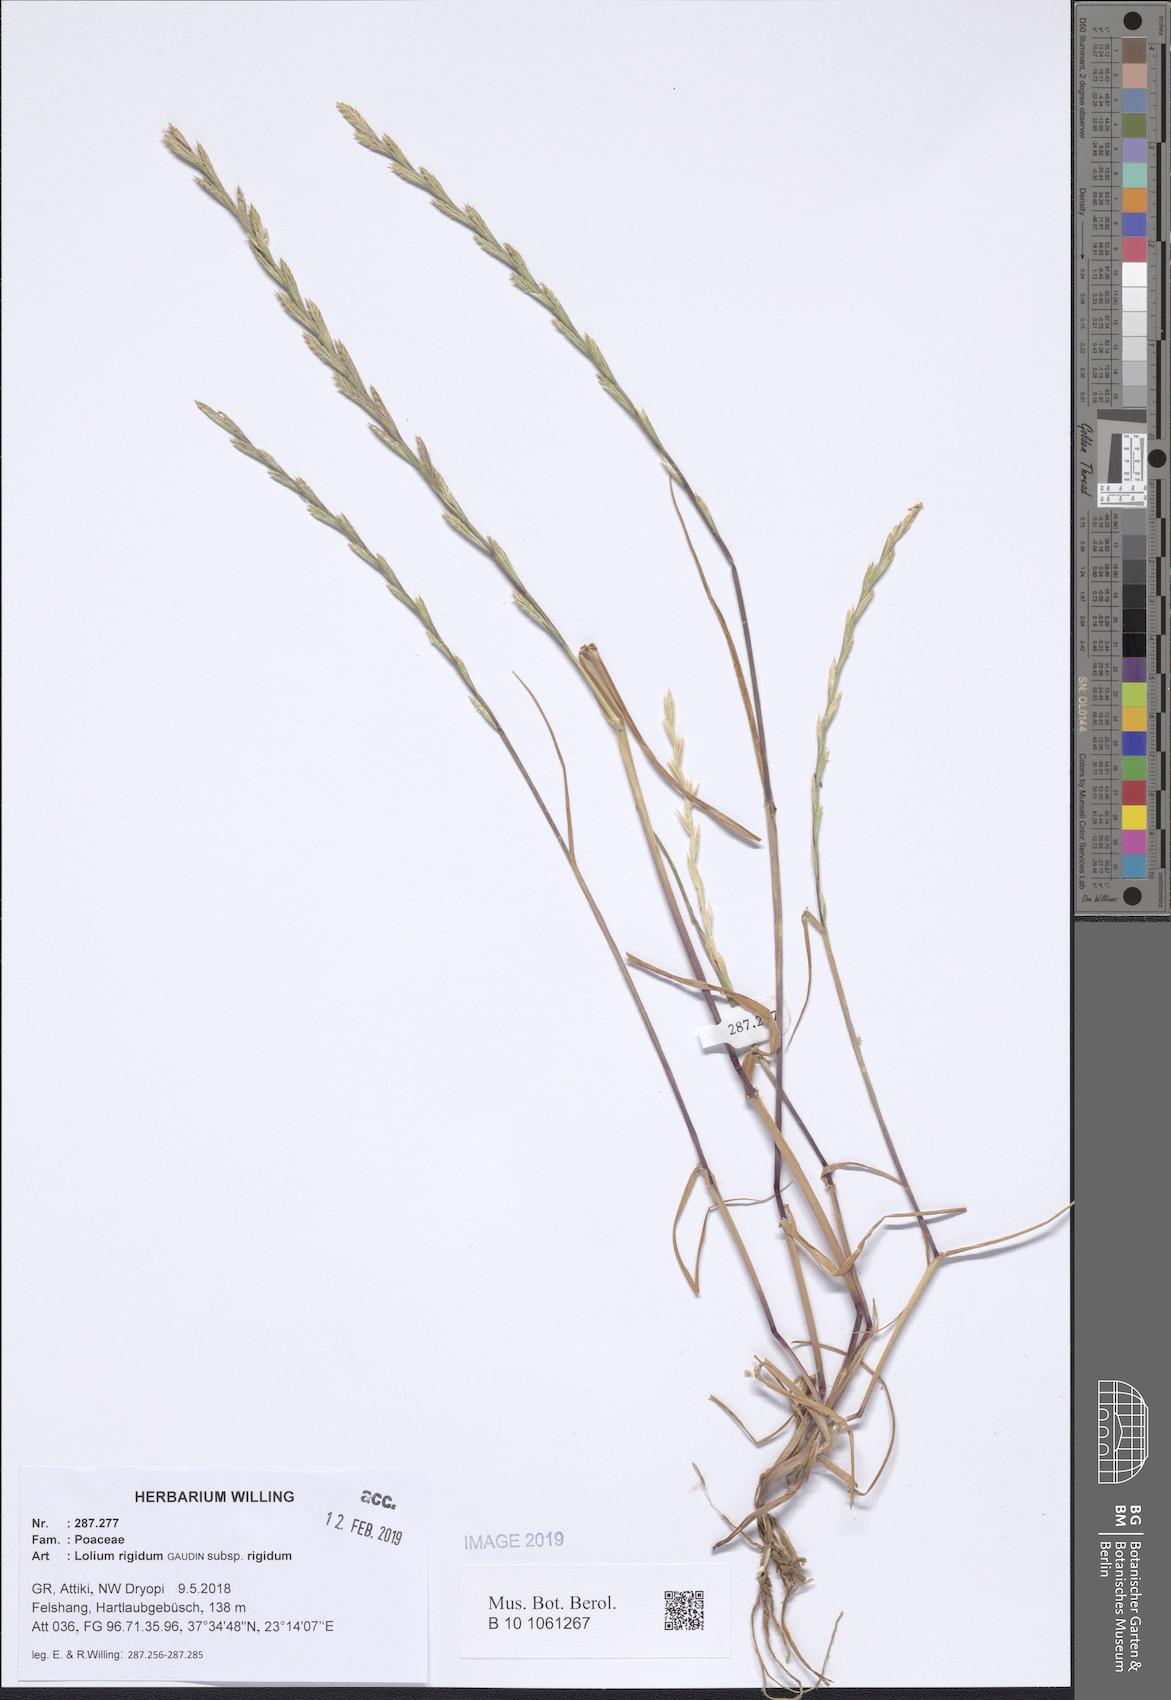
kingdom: Plantae
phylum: Tracheophyta
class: Liliopsida
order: Poales
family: Poaceae
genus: Lolium
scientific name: Lolium rigidum
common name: Wimmera ryegrass
